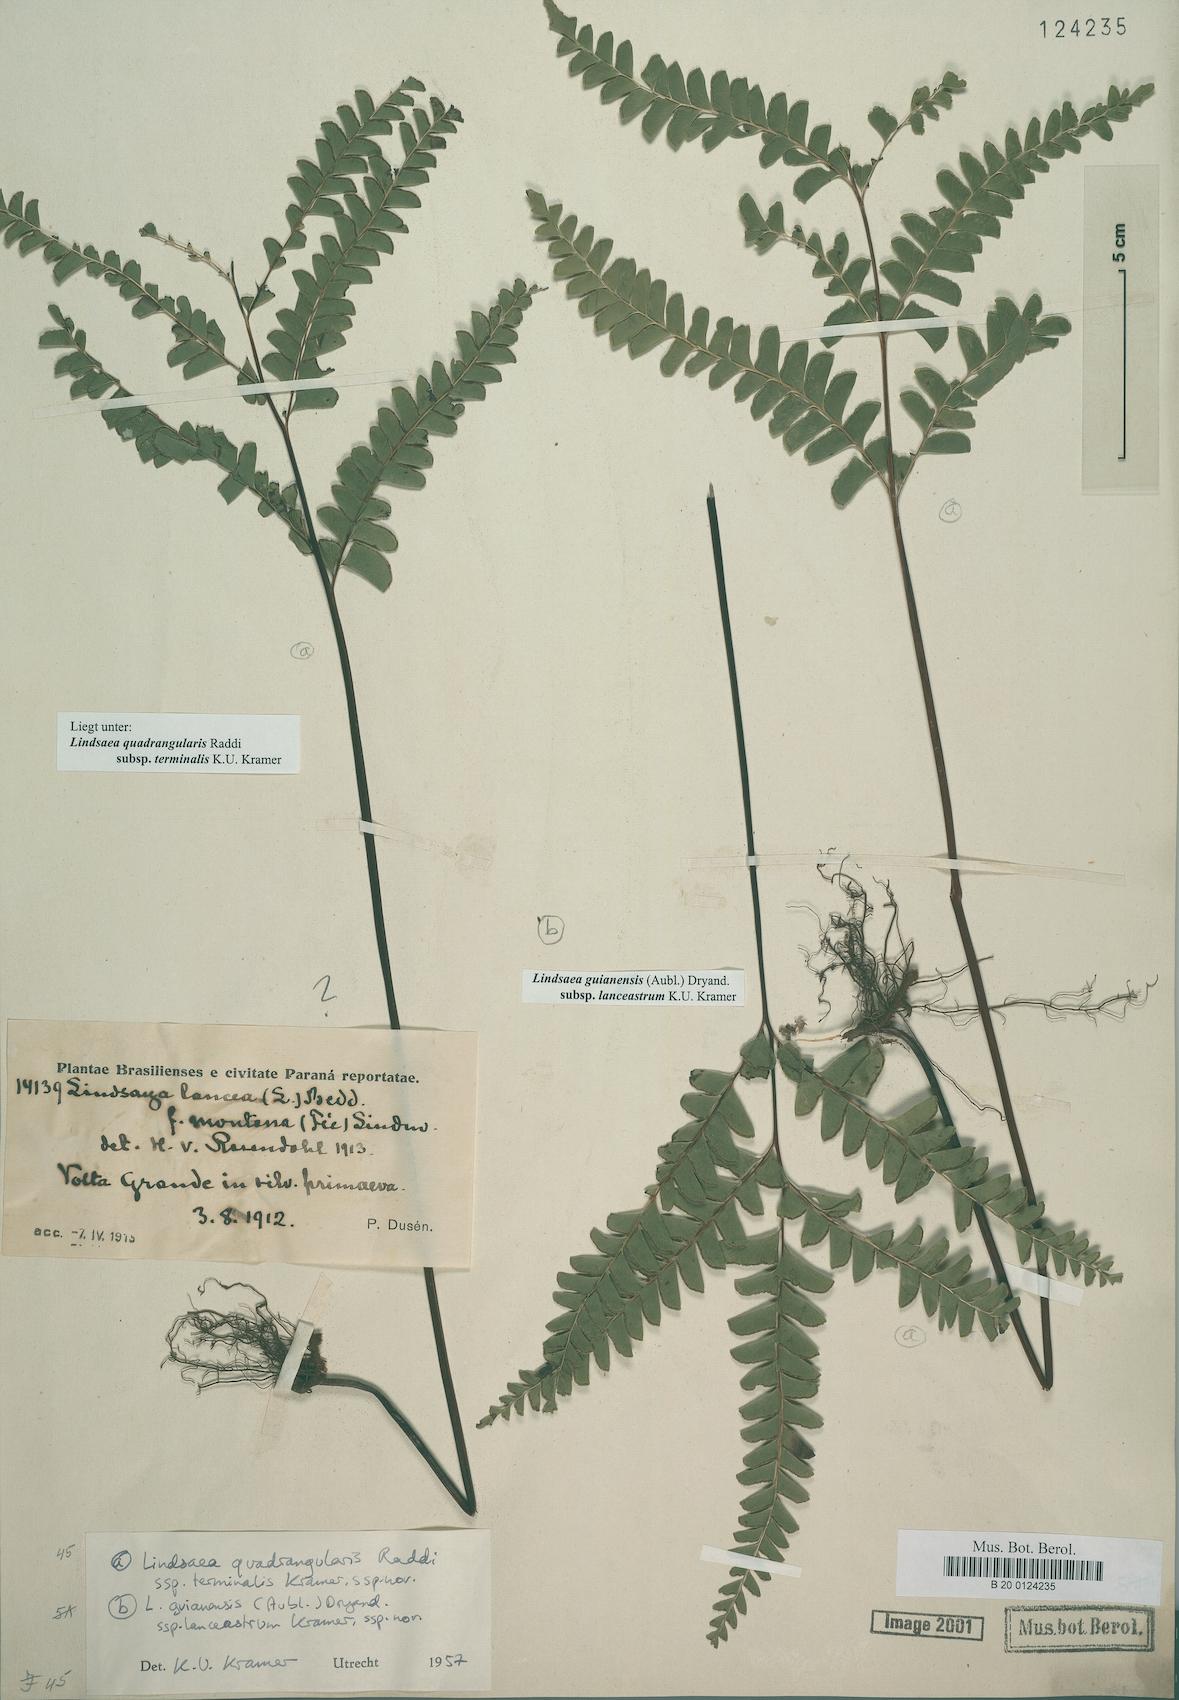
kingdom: Plantae
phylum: Tracheophyta
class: Polypodiopsida
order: Polypodiales
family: Lindsaeaceae
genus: Lindsaea
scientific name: Lindsaea guianensis
